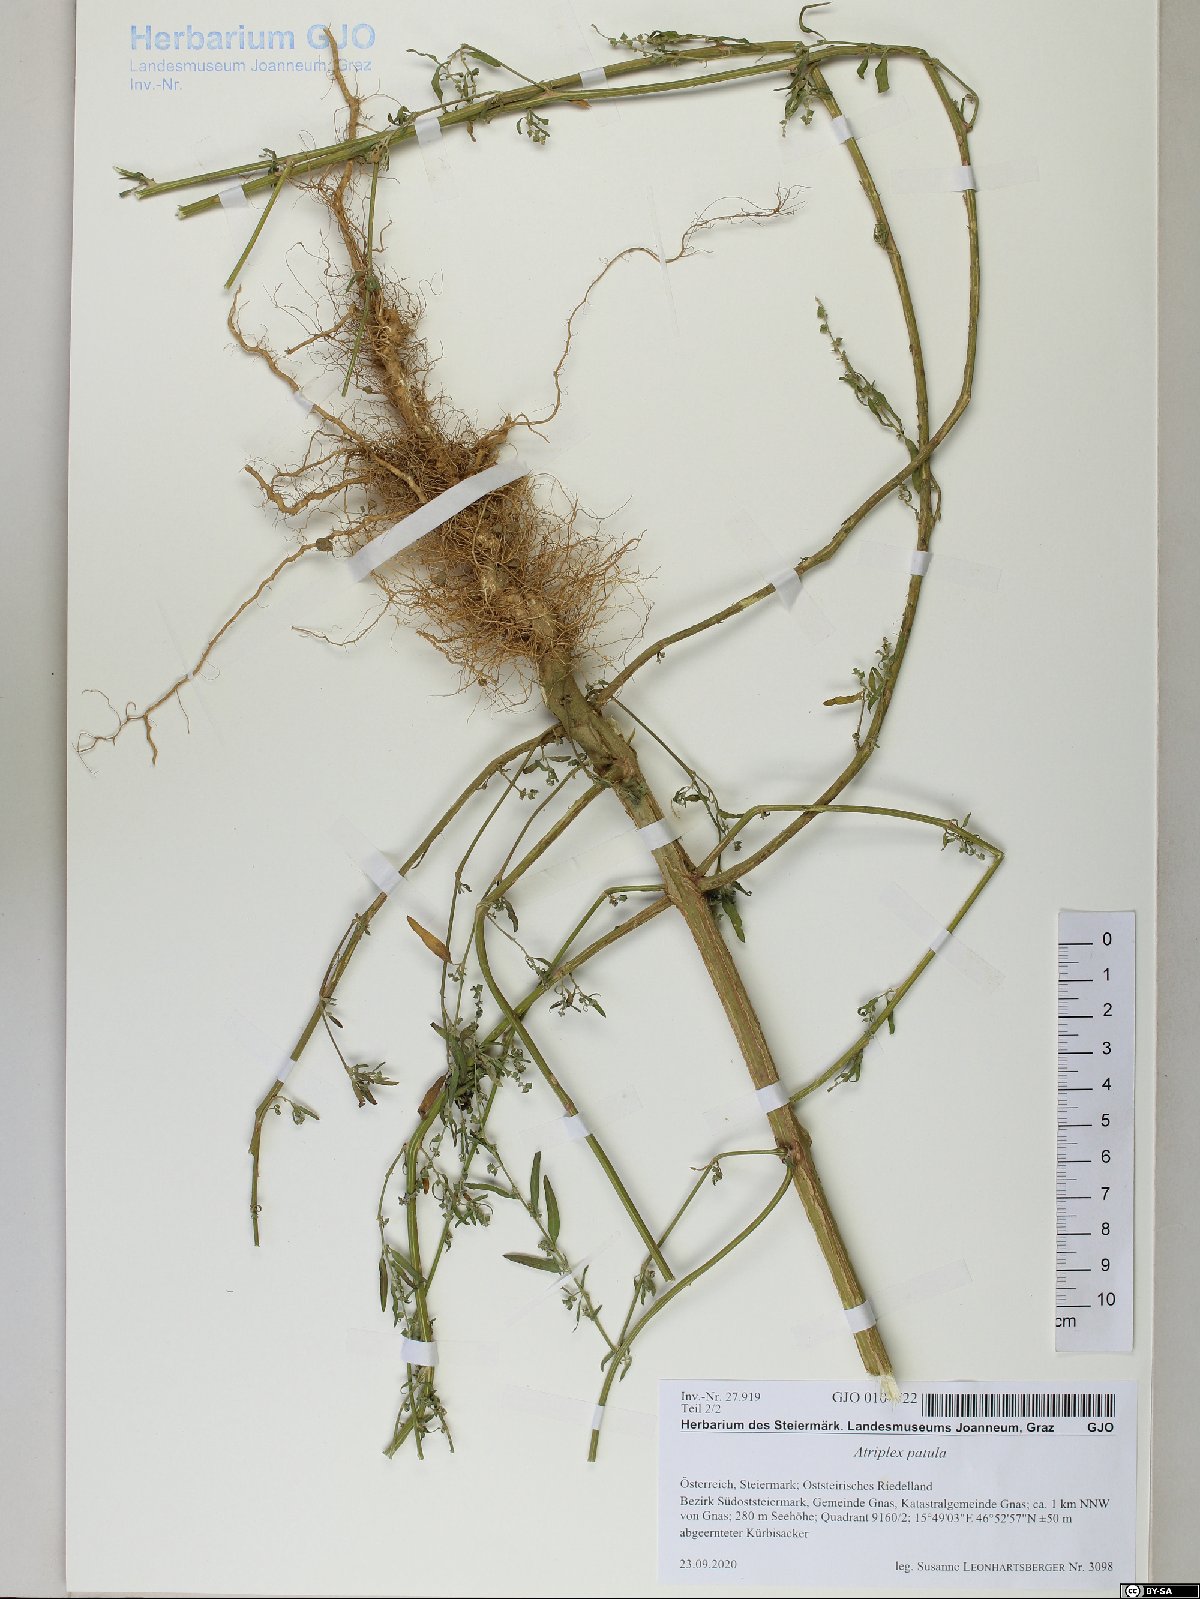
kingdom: Plantae
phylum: Tracheophyta
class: Magnoliopsida
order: Caryophyllales
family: Amaranthaceae
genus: Atriplex
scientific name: Atriplex patula
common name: Common orache
